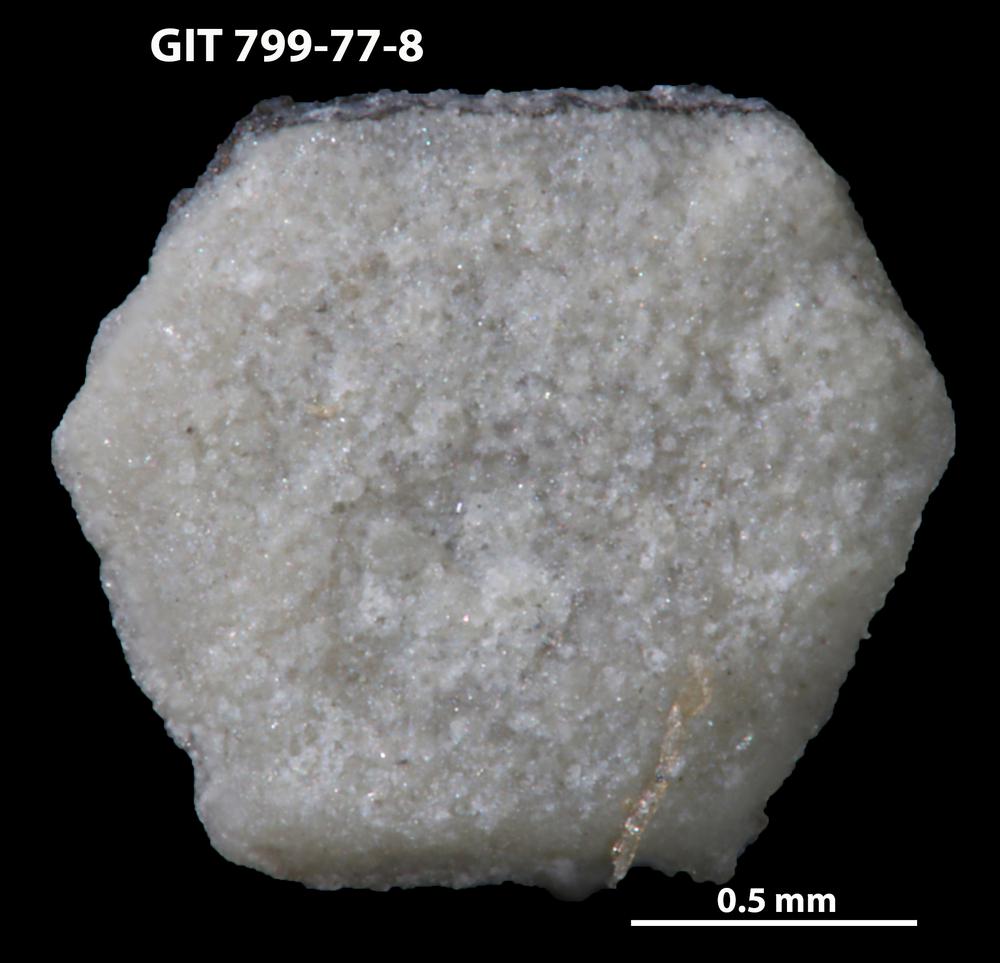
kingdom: Animalia
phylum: Echinodermata
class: Echinoidea
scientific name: Echinoidea
